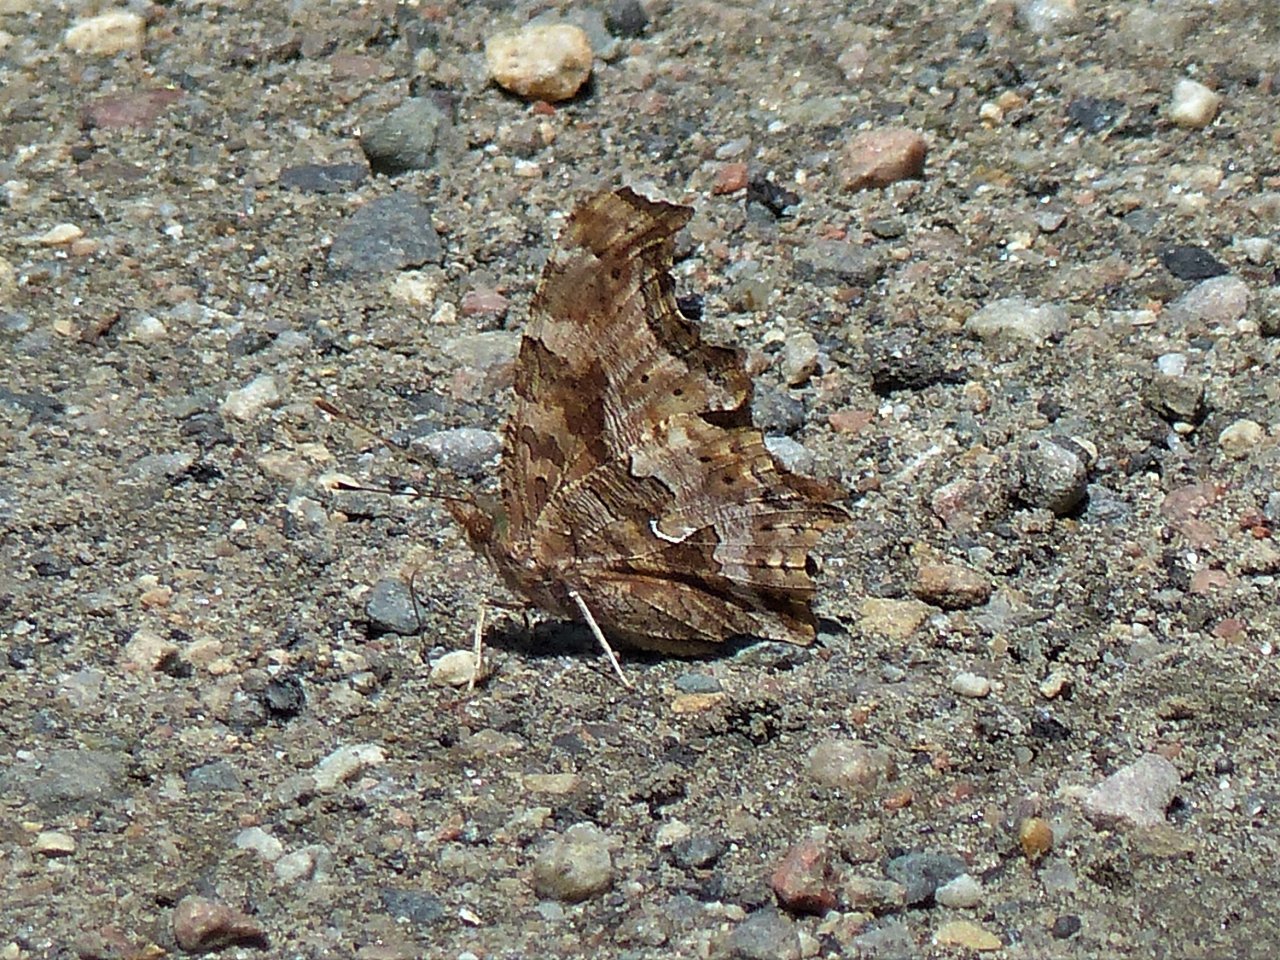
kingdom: Animalia
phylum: Arthropoda
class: Insecta
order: Lepidoptera
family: Nymphalidae
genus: Polygonia
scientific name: Polygonia comma
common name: Eastern Comma
